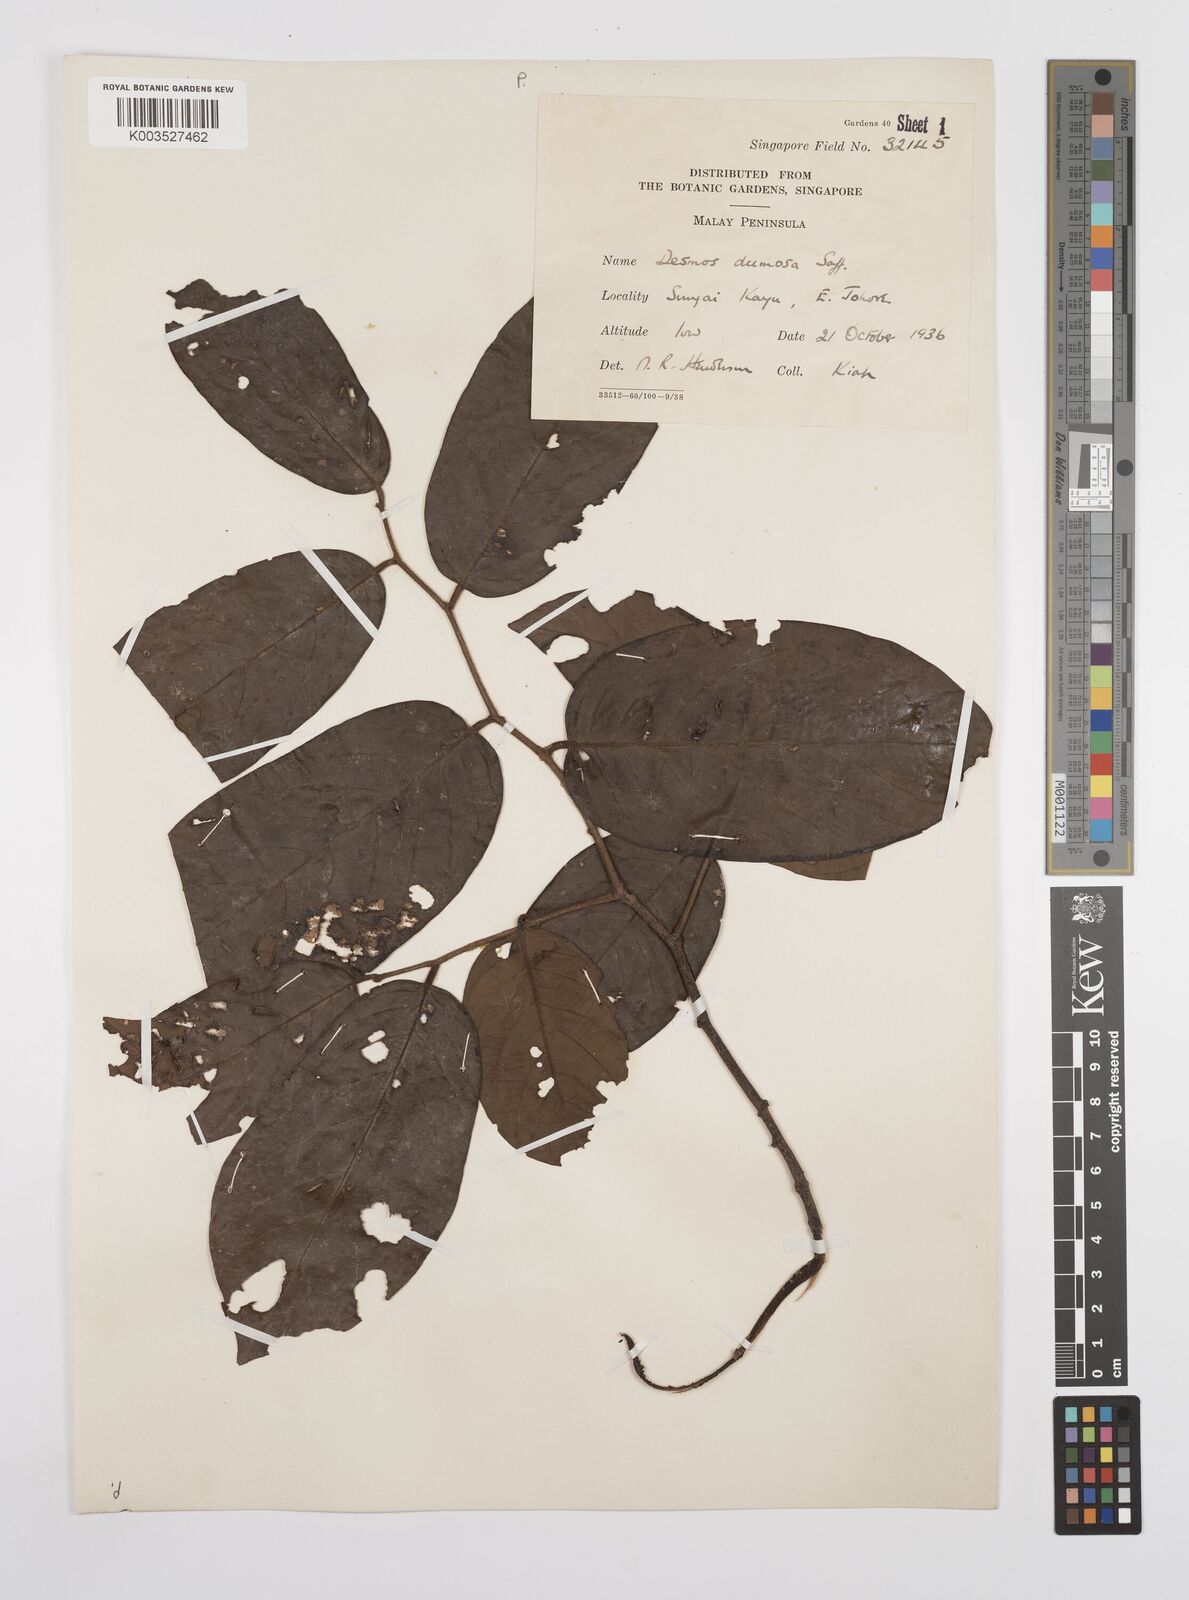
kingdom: Plantae
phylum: Tracheophyta
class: Magnoliopsida
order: Magnoliales
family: Annonaceae
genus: Desmos
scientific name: Desmos dumosus
